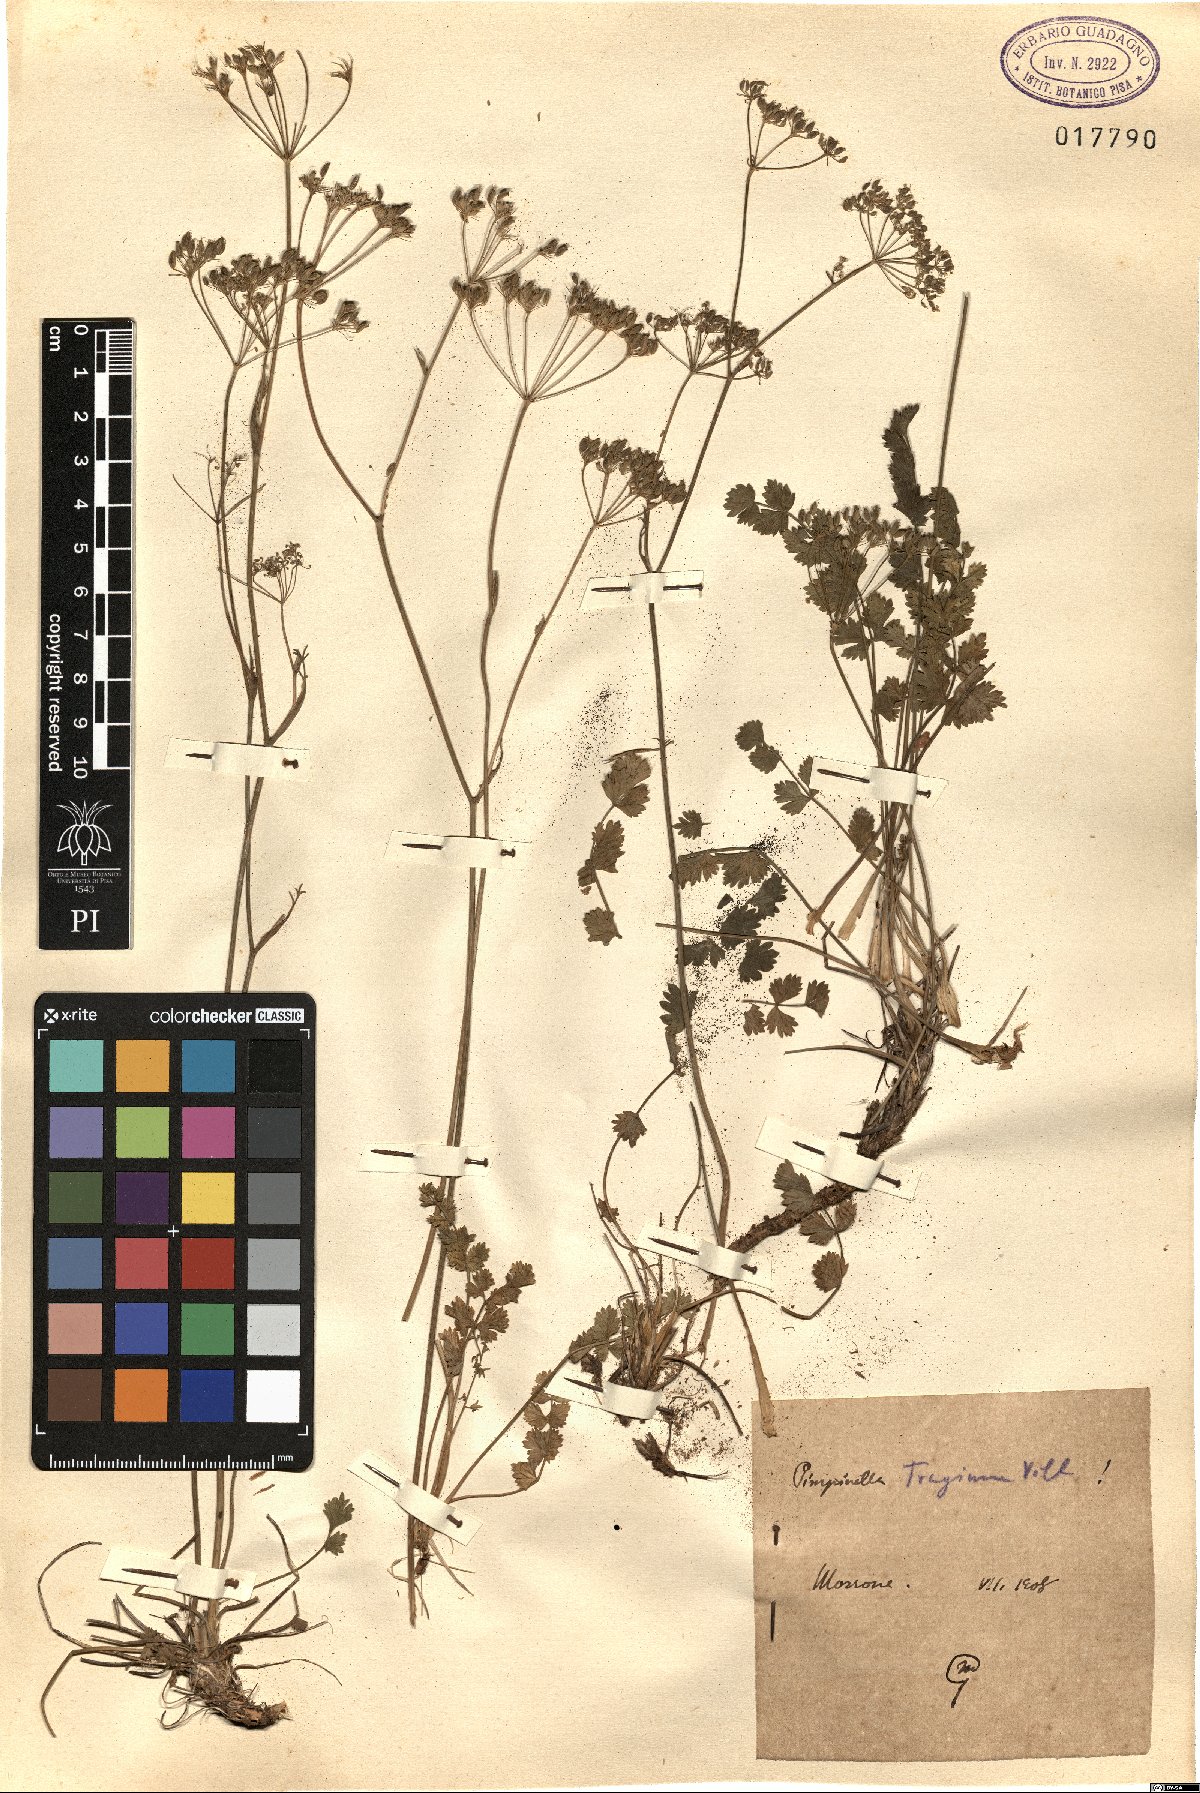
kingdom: Plantae
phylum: Tracheophyta
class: Magnoliopsida
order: Apiales
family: Apiaceae
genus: Pimpinella
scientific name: Pimpinella tragium
